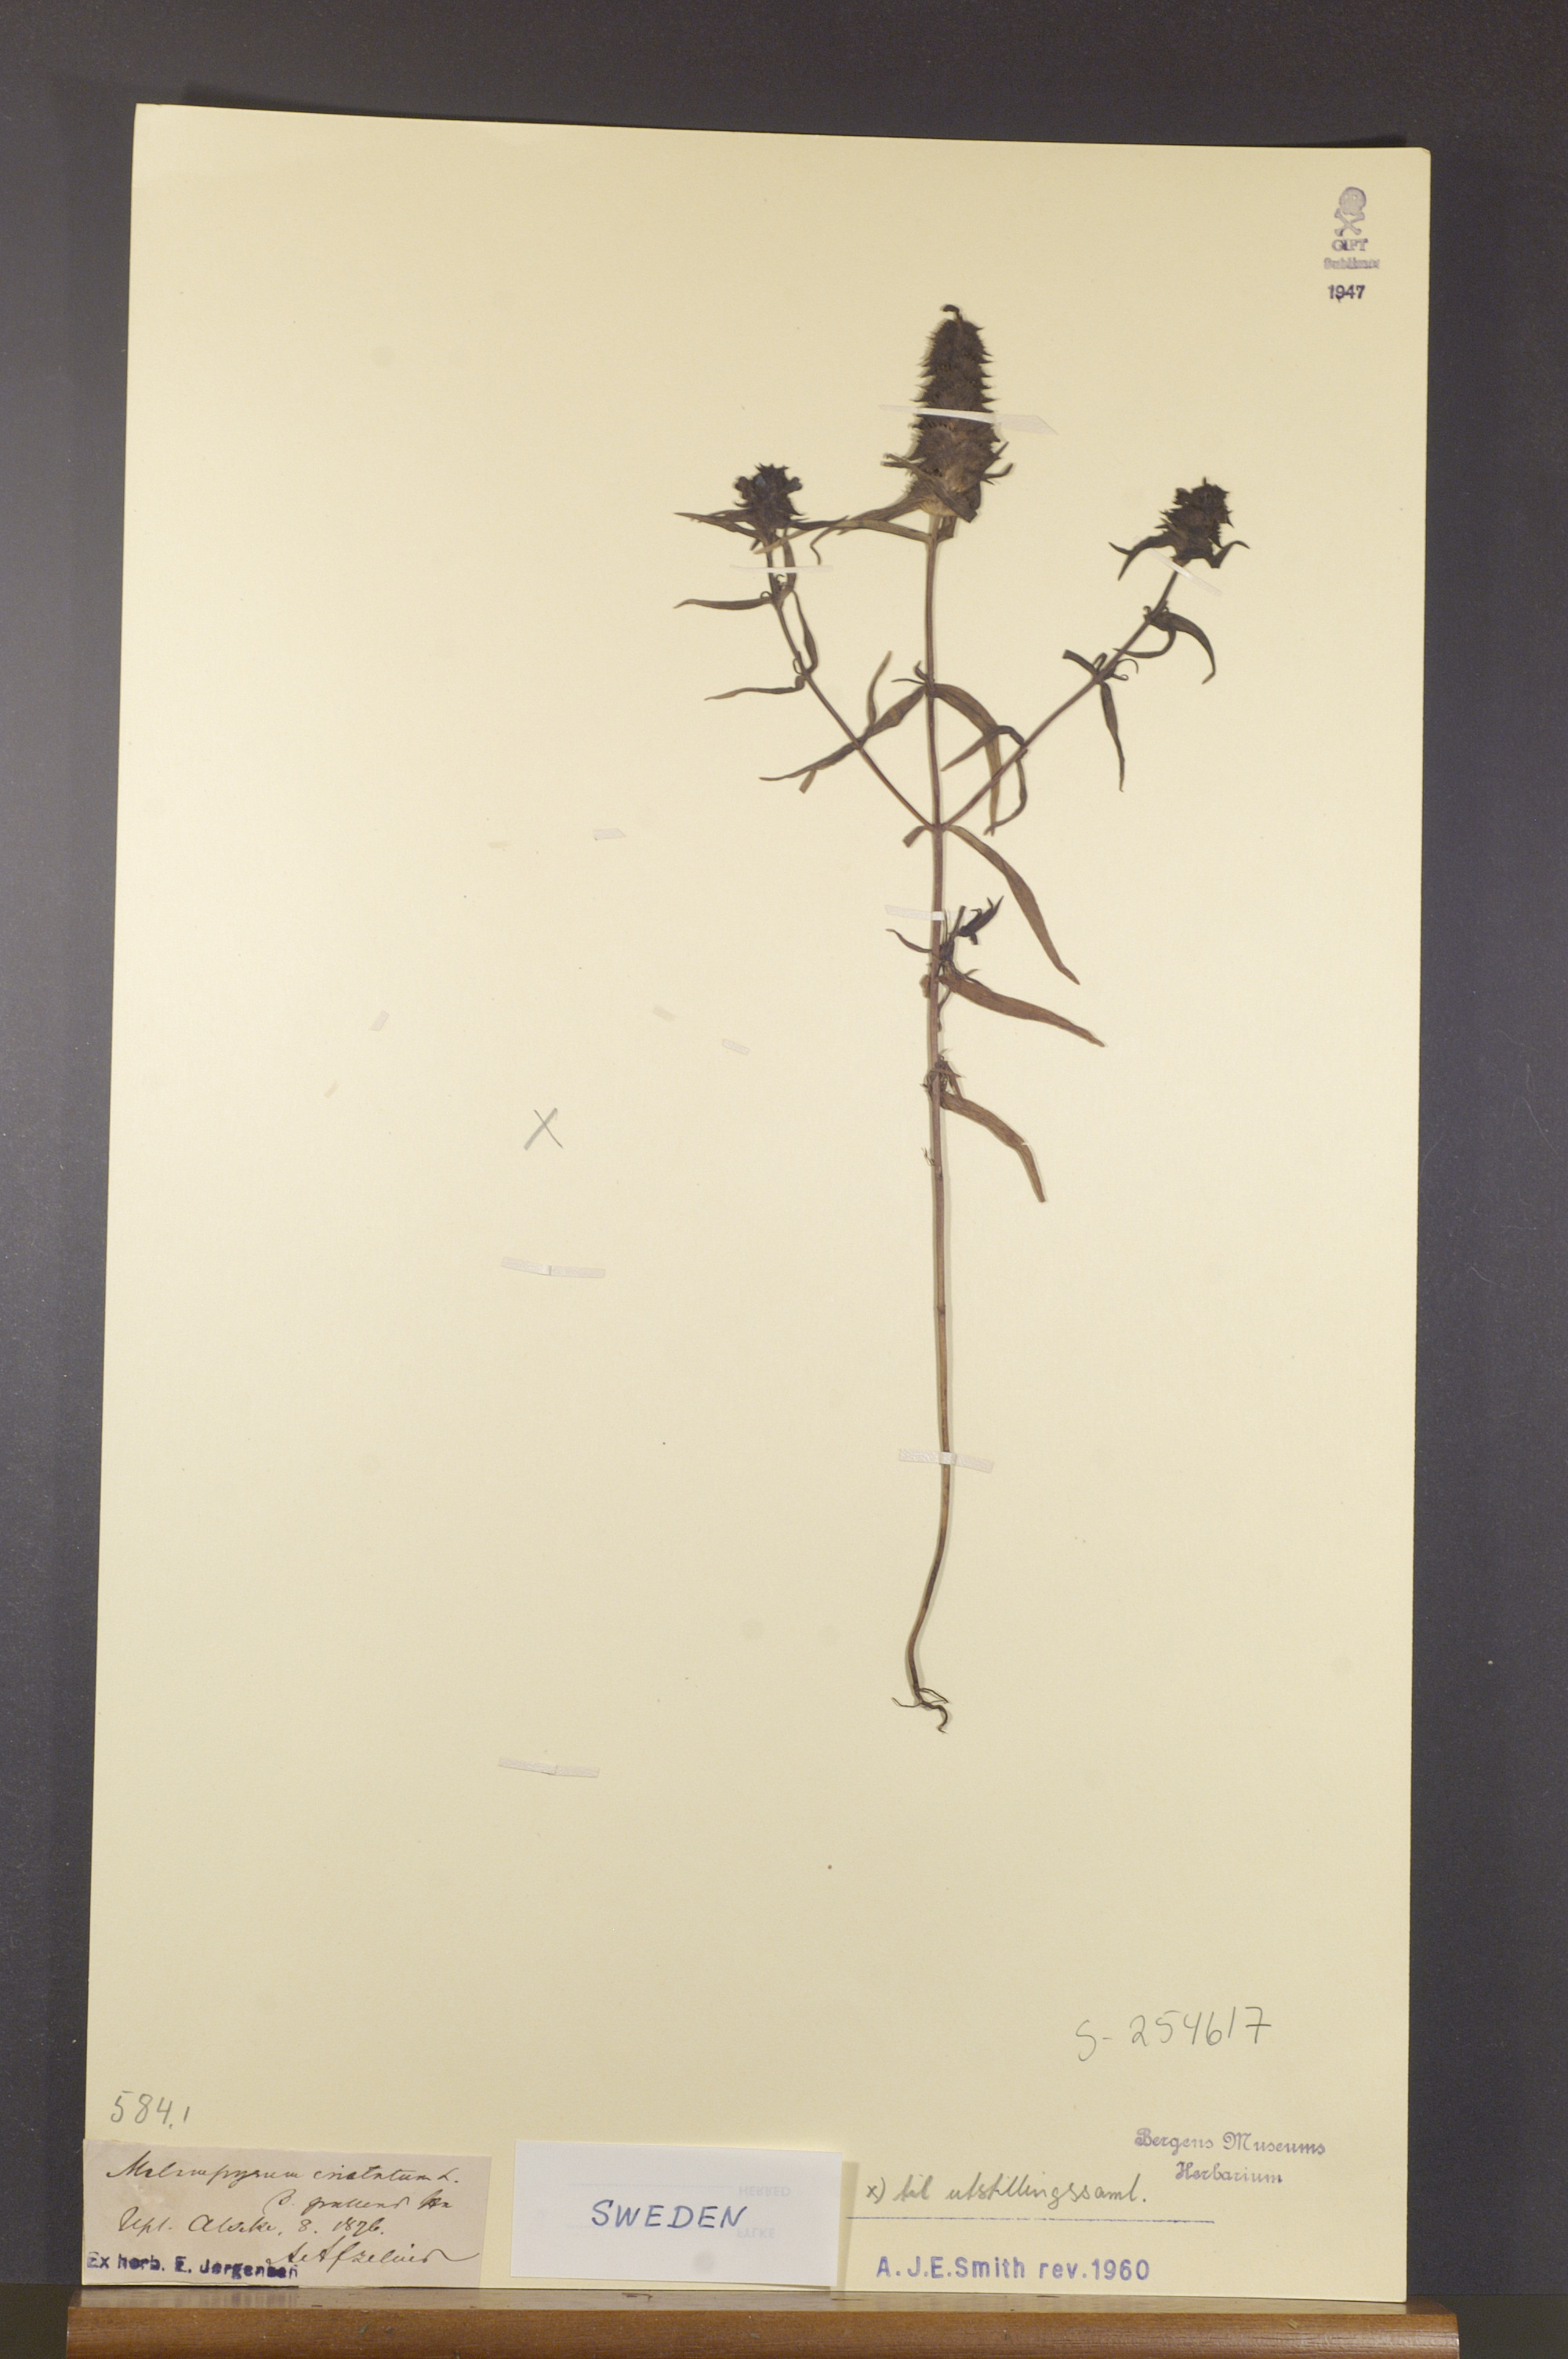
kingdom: Plantae
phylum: Tracheophyta
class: Magnoliopsida
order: Lamiales
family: Orobanchaceae
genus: Melampyrum
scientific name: Melampyrum cristatum
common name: Crested cow-wheat
